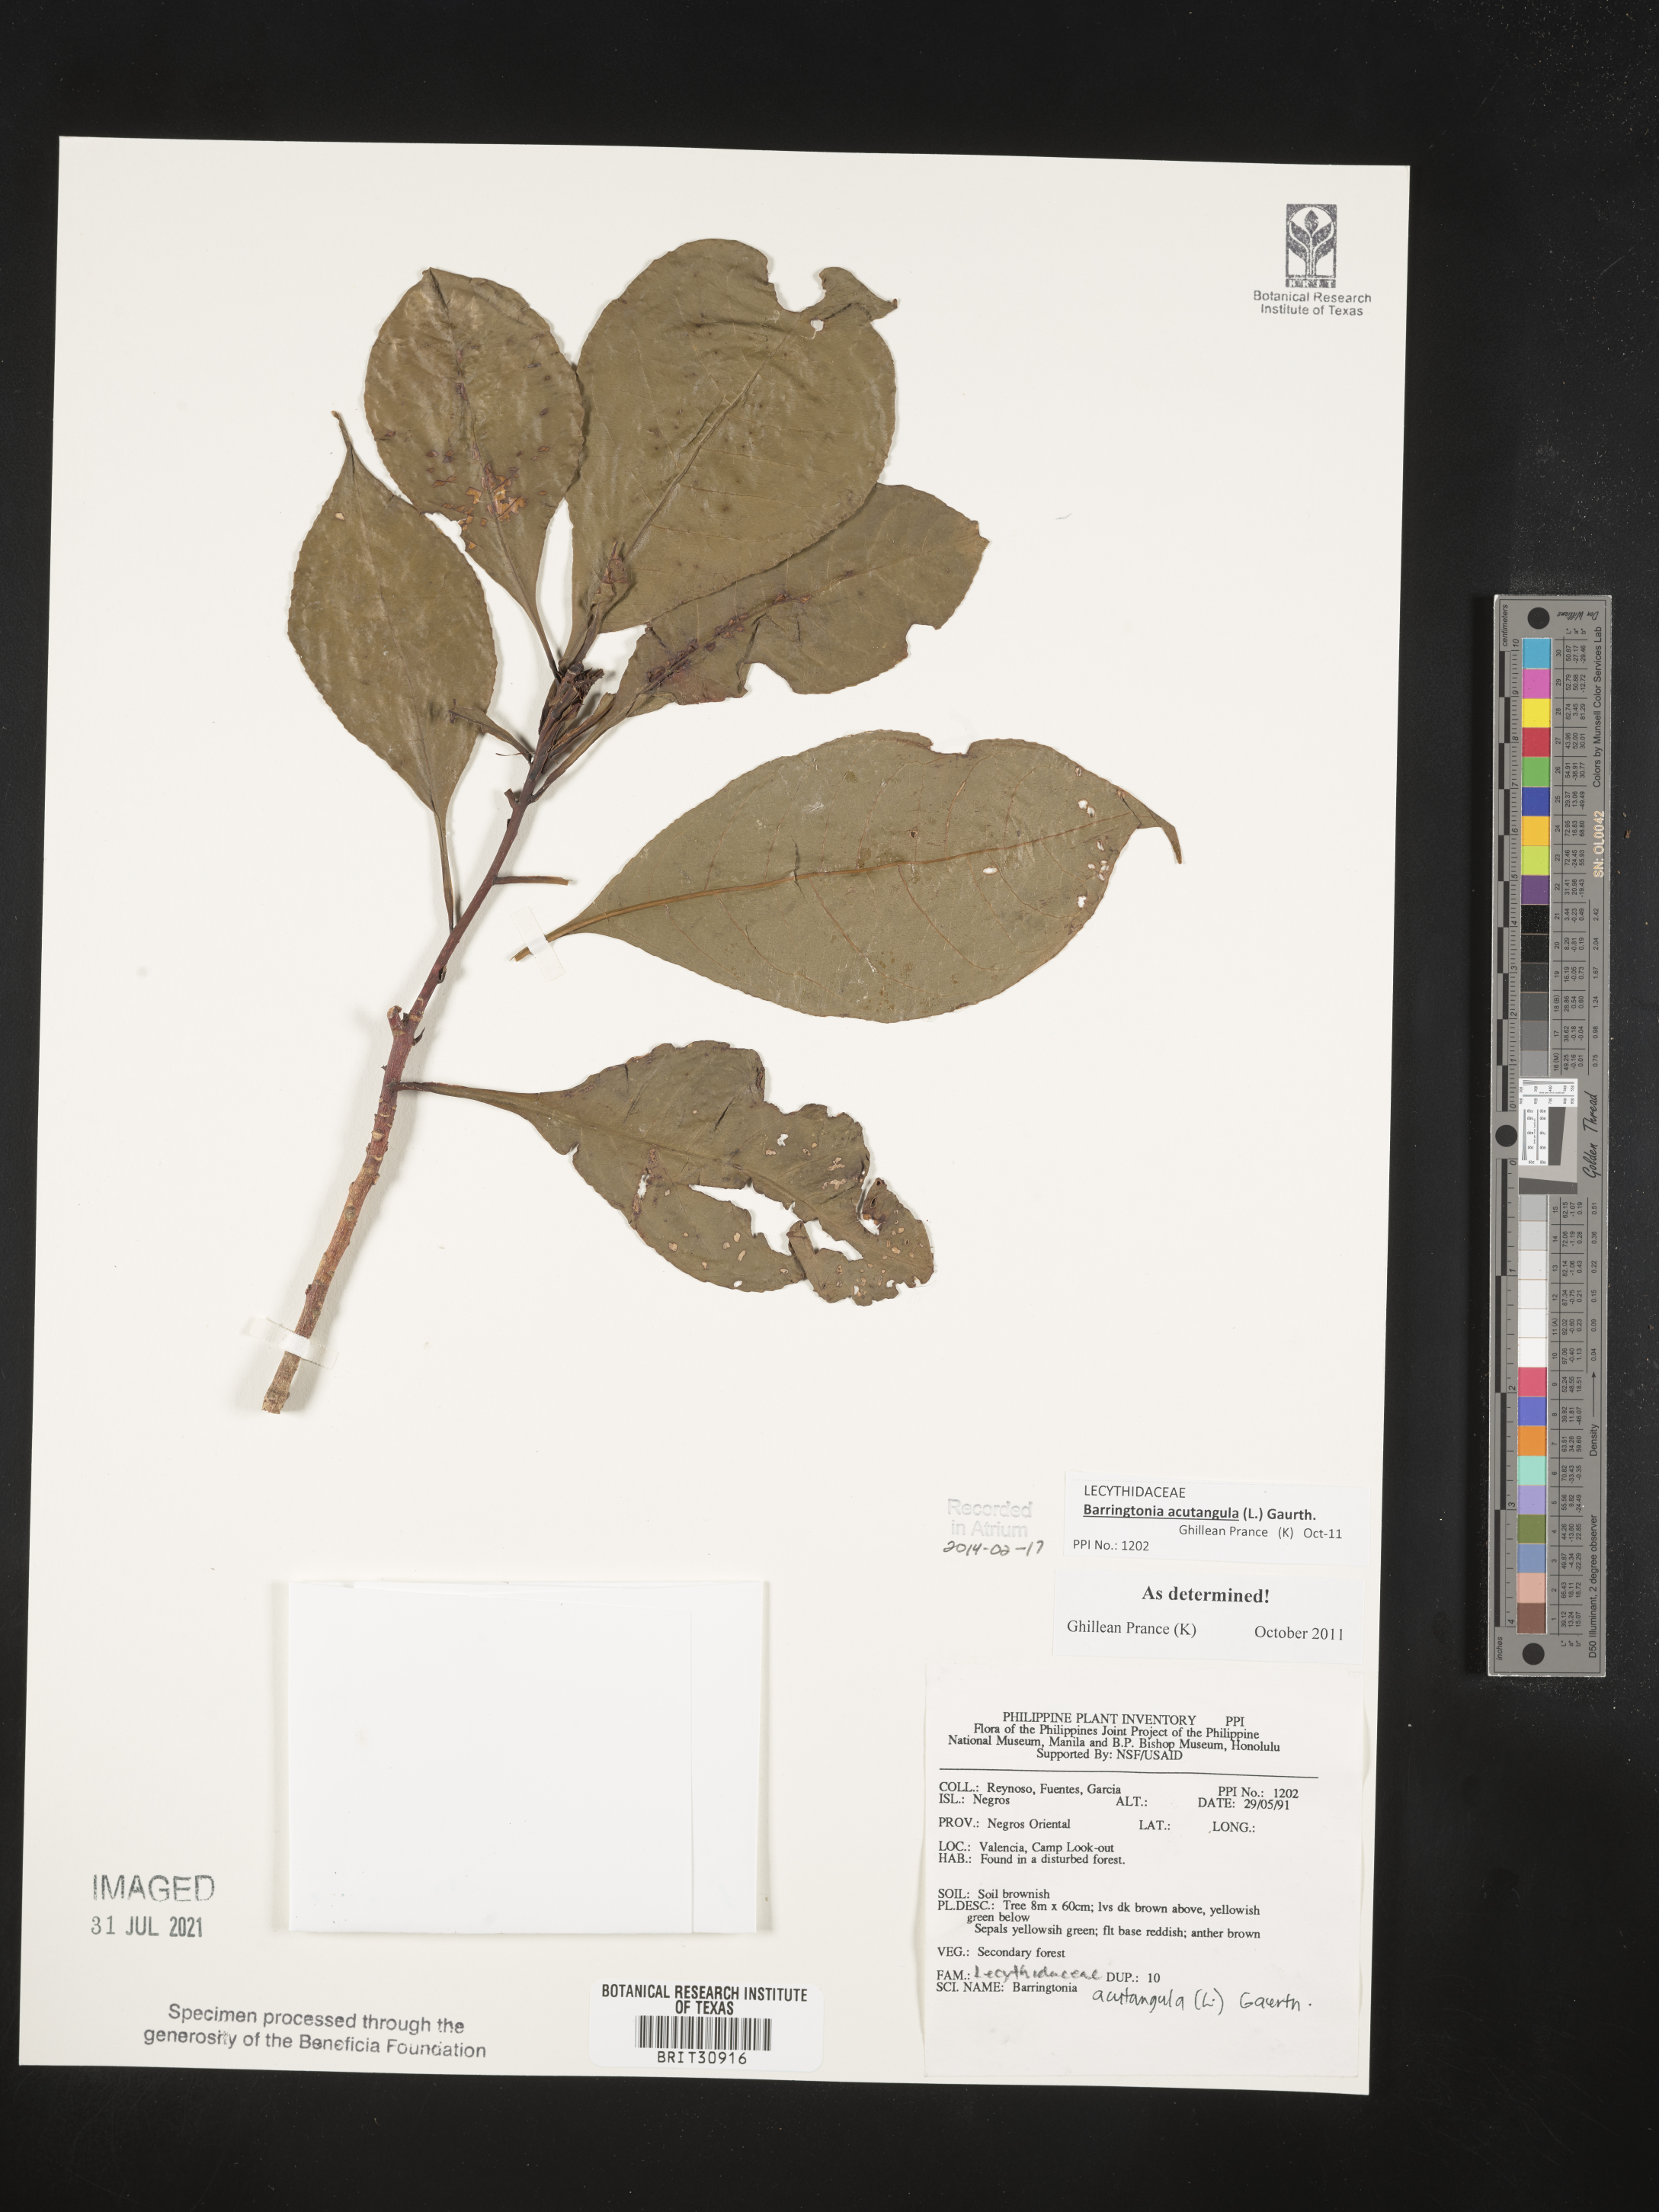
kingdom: Plantae
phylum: Tracheophyta
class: Magnoliopsida
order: Ericales
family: Lecythidaceae
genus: Barringtonia
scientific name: Barringtonia acutangula
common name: Freshwater mangrove
